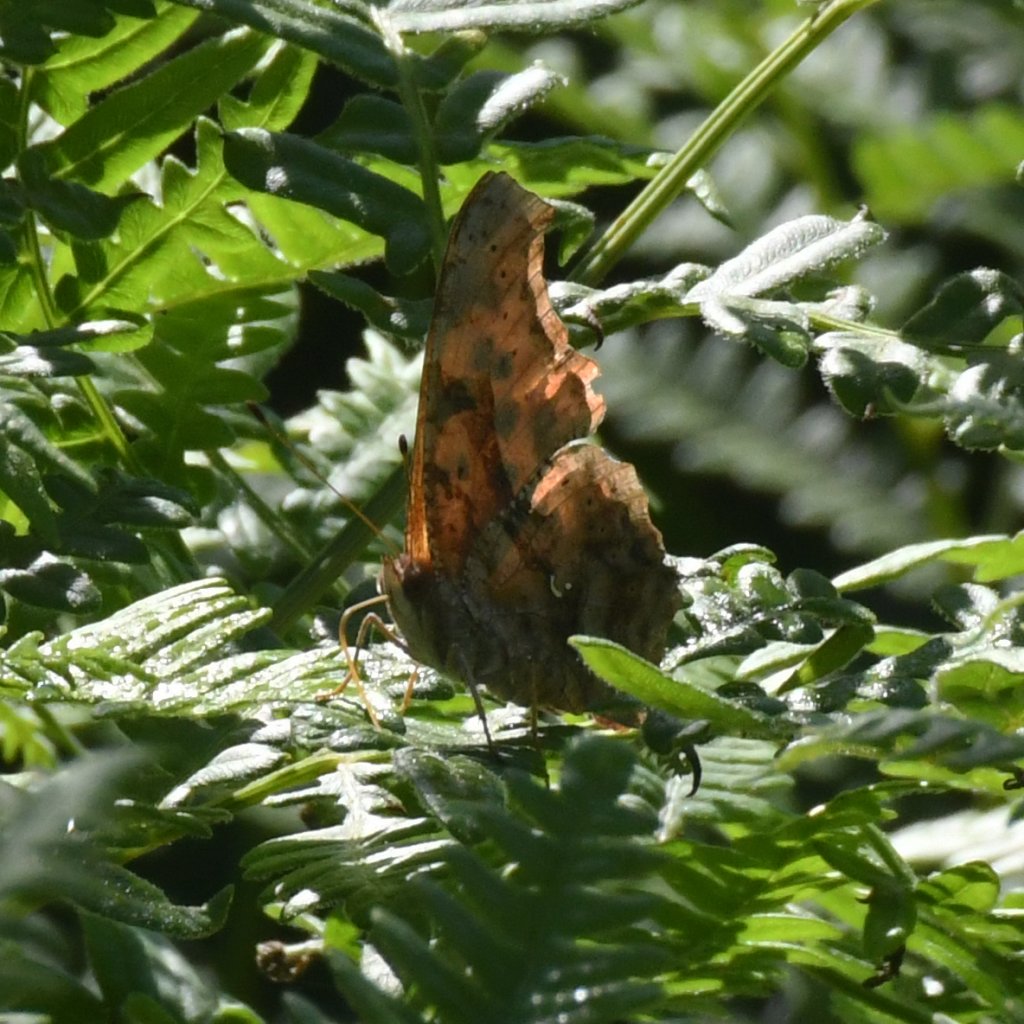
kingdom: Animalia
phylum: Arthropoda
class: Insecta
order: Lepidoptera
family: Nymphalidae
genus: Polygonia
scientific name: Polygonia interrogationis
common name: Question Mark
